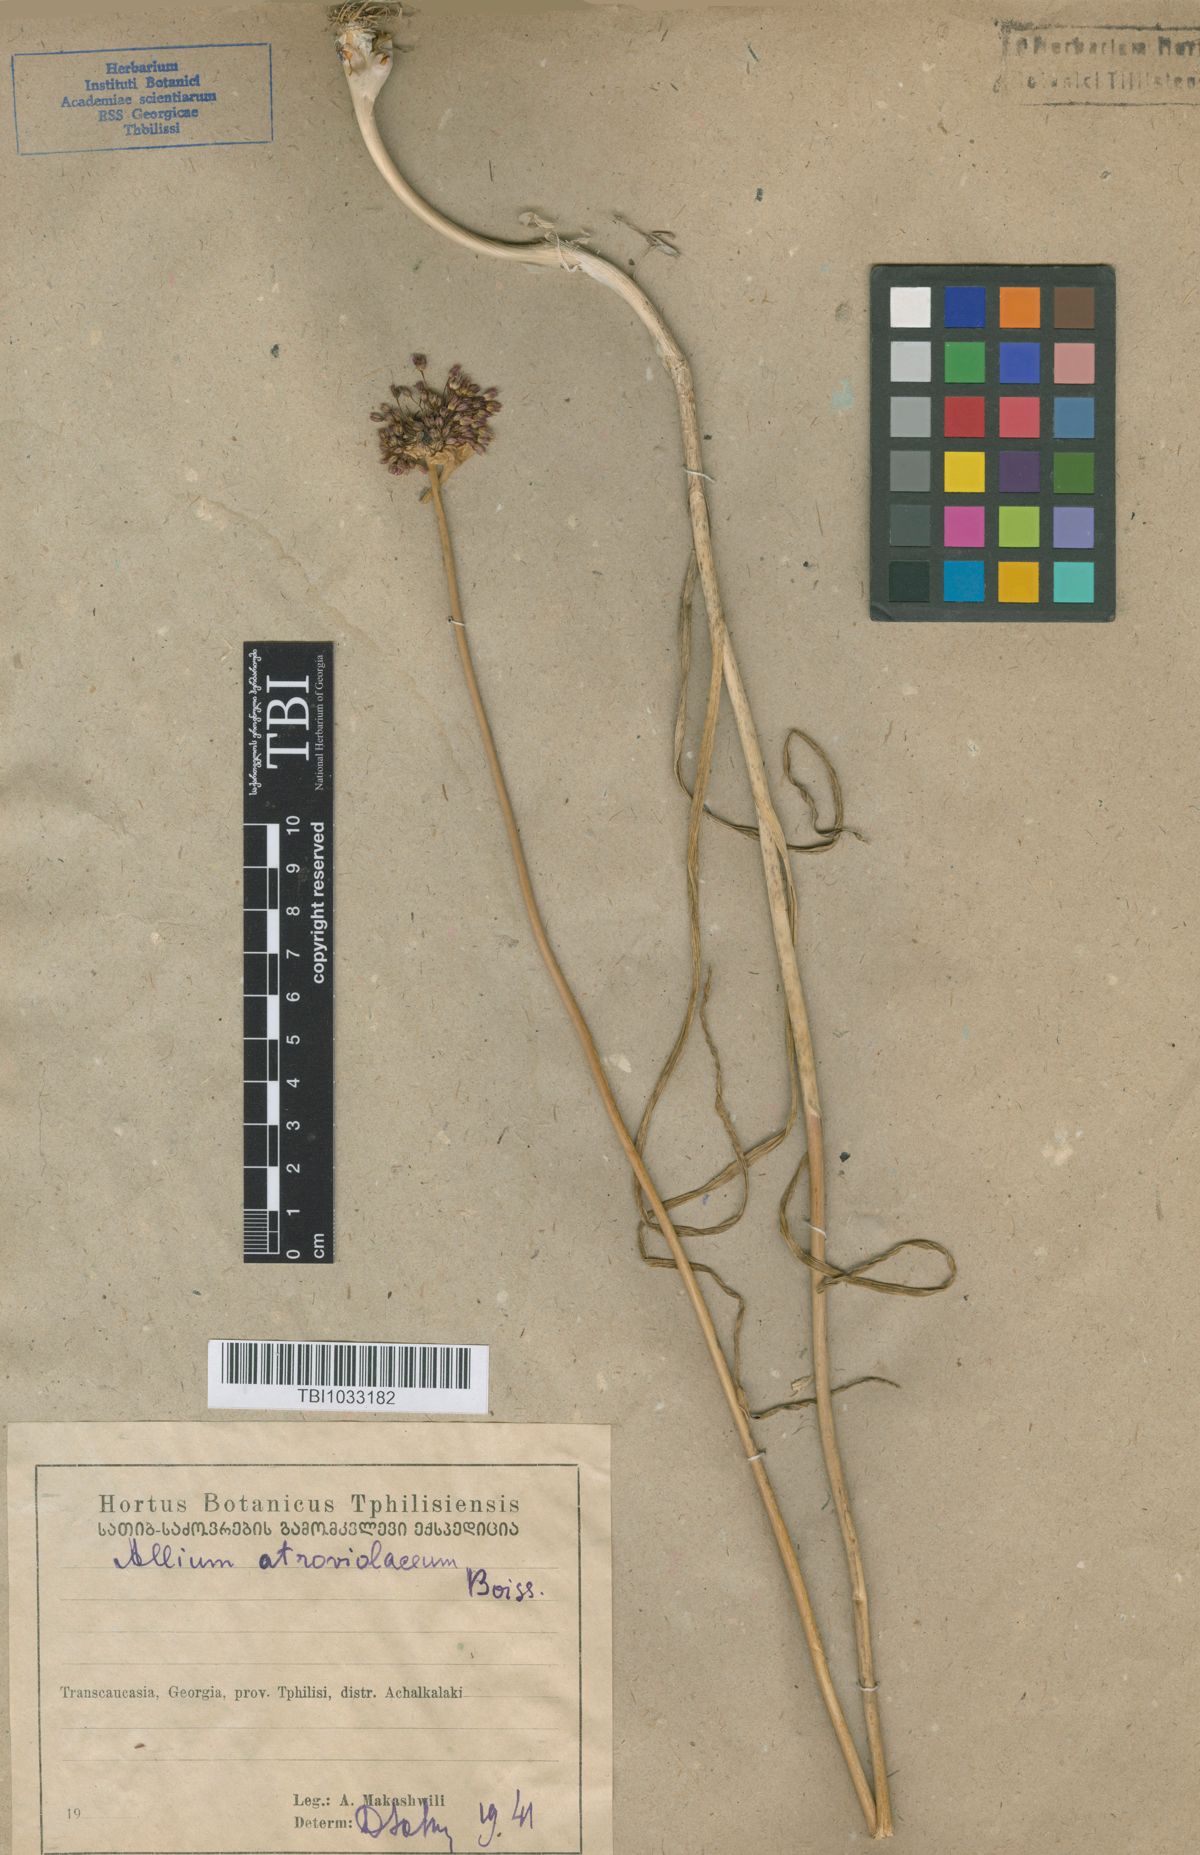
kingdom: Plantae
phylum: Tracheophyta
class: Liliopsida
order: Asparagales
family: Amaryllidaceae
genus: Allium
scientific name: Allium atroviolaceum
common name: Broadleaf wild leek
